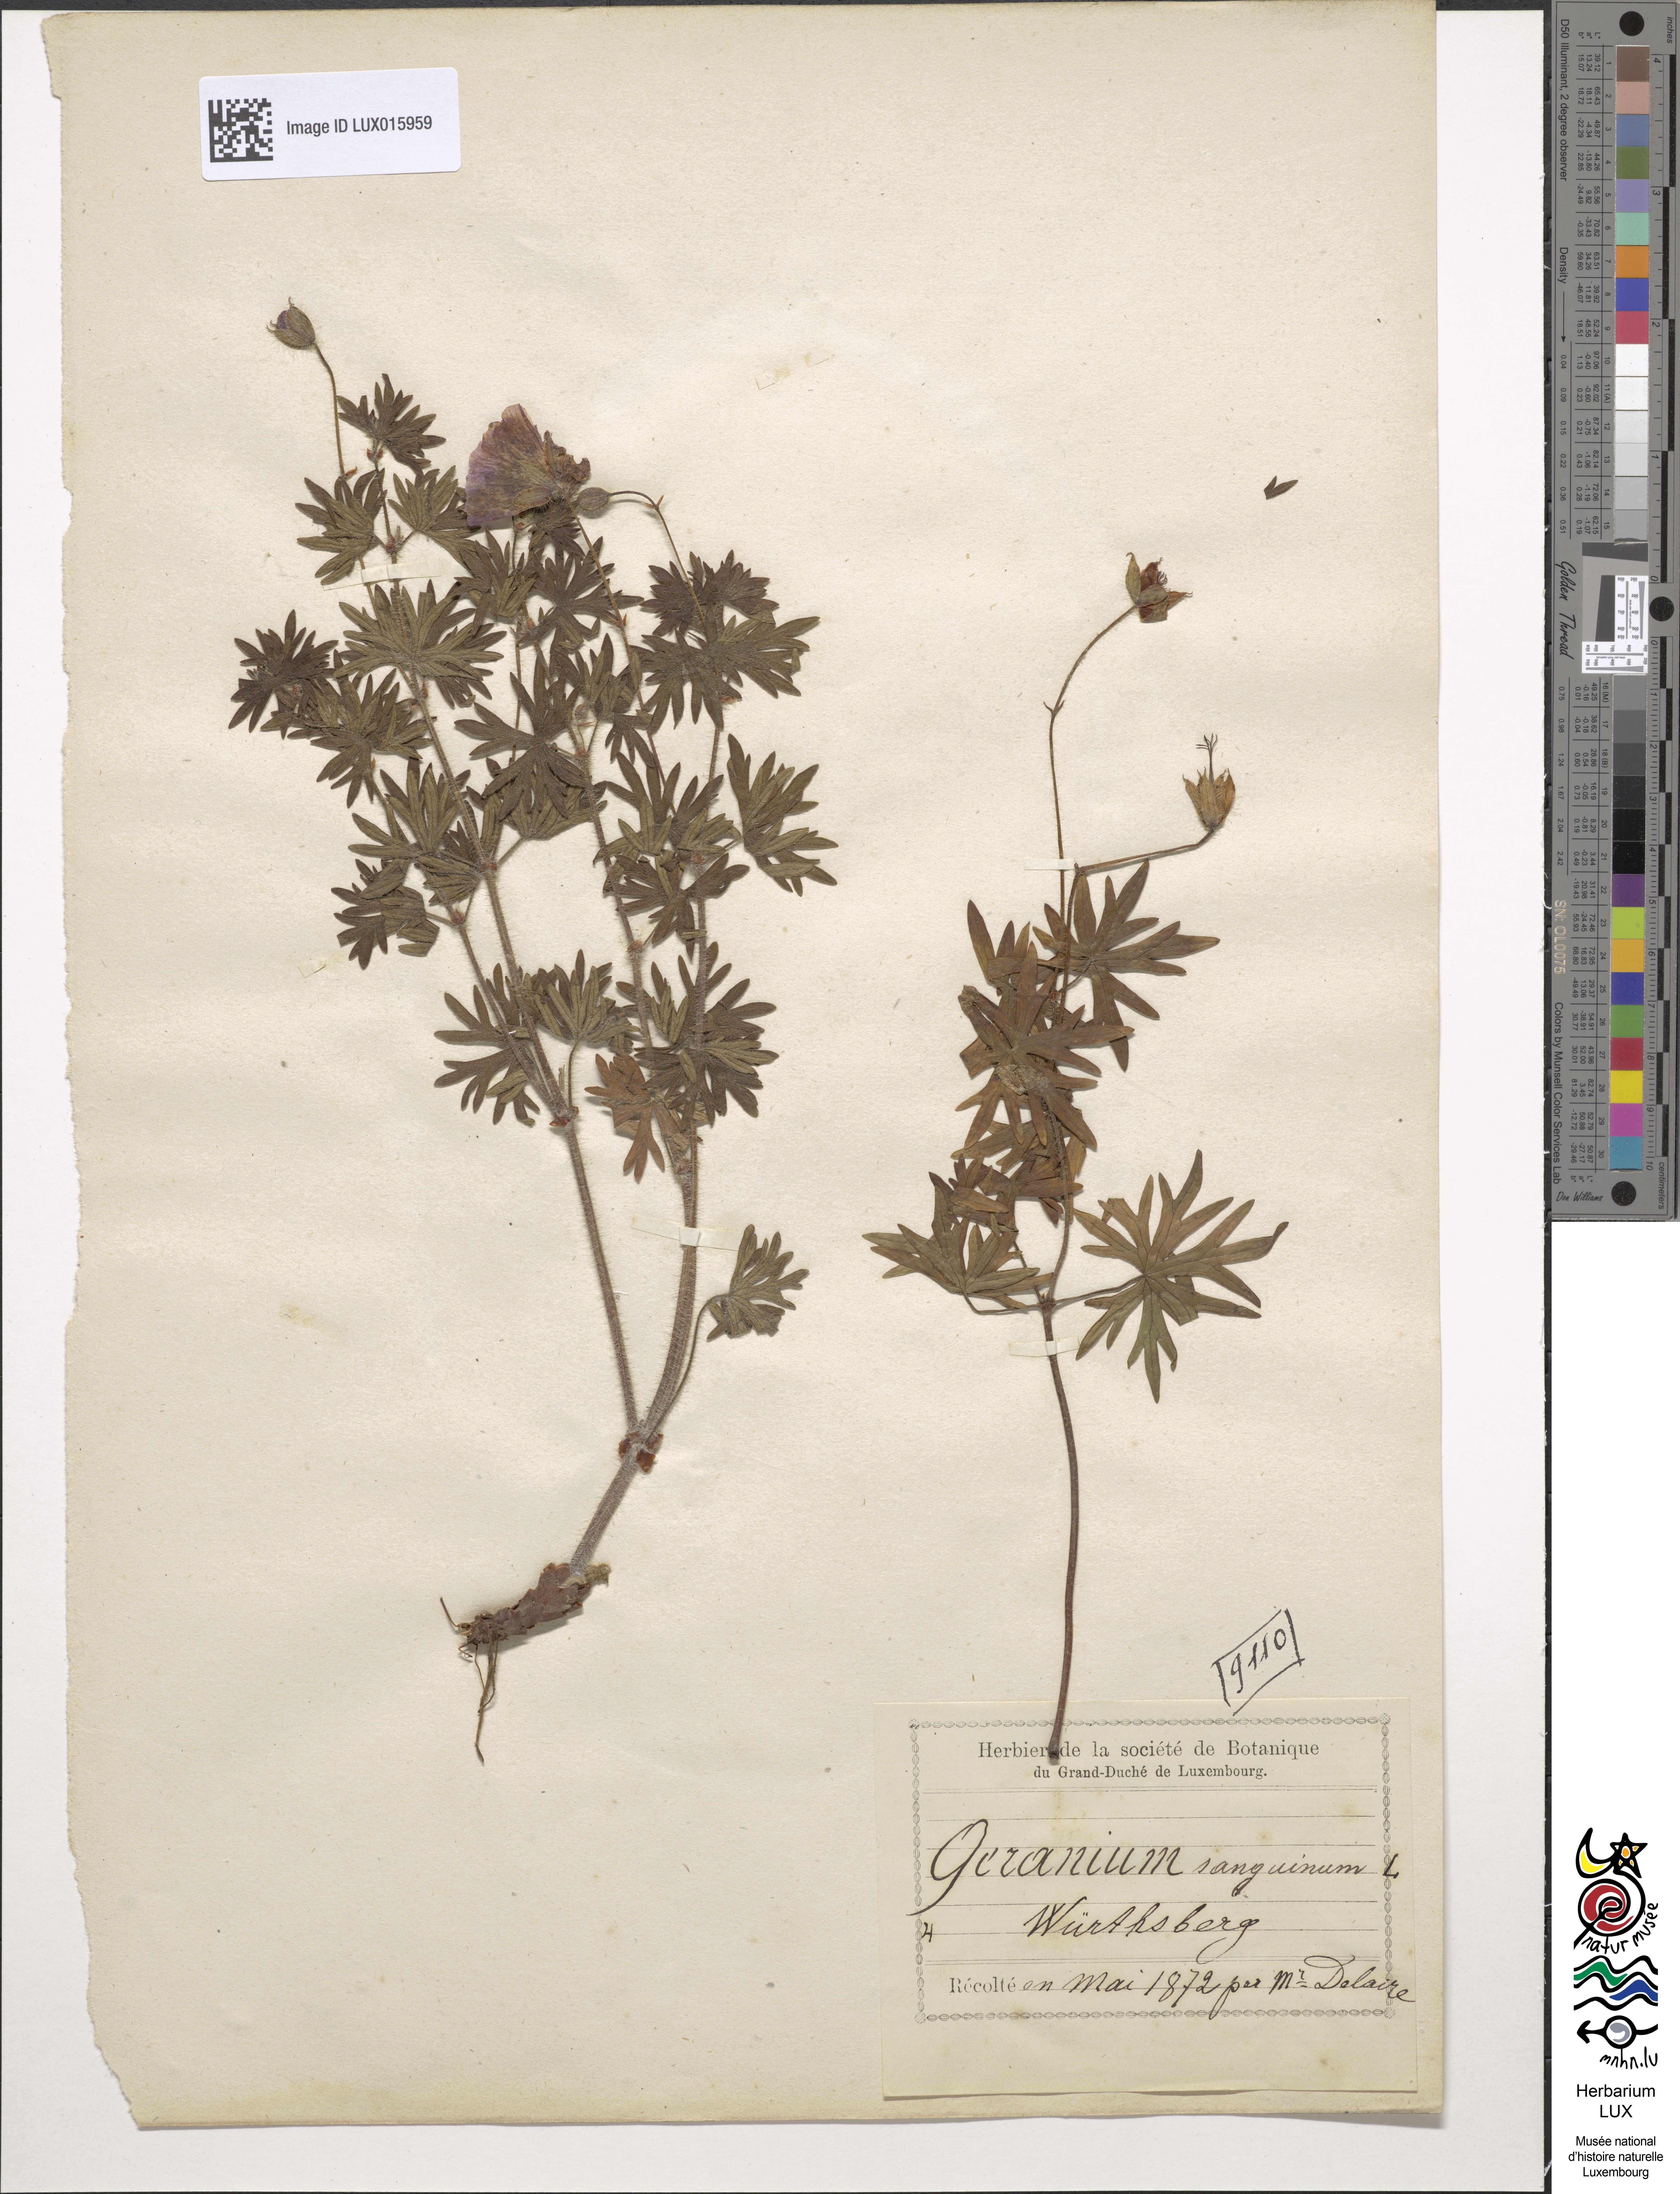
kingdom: Plantae
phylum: Tracheophyta
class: Magnoliopsida
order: Geraniales
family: Geraniaceae
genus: Geranium
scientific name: Geranium sanguineum
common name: Bloody crane's-bill
